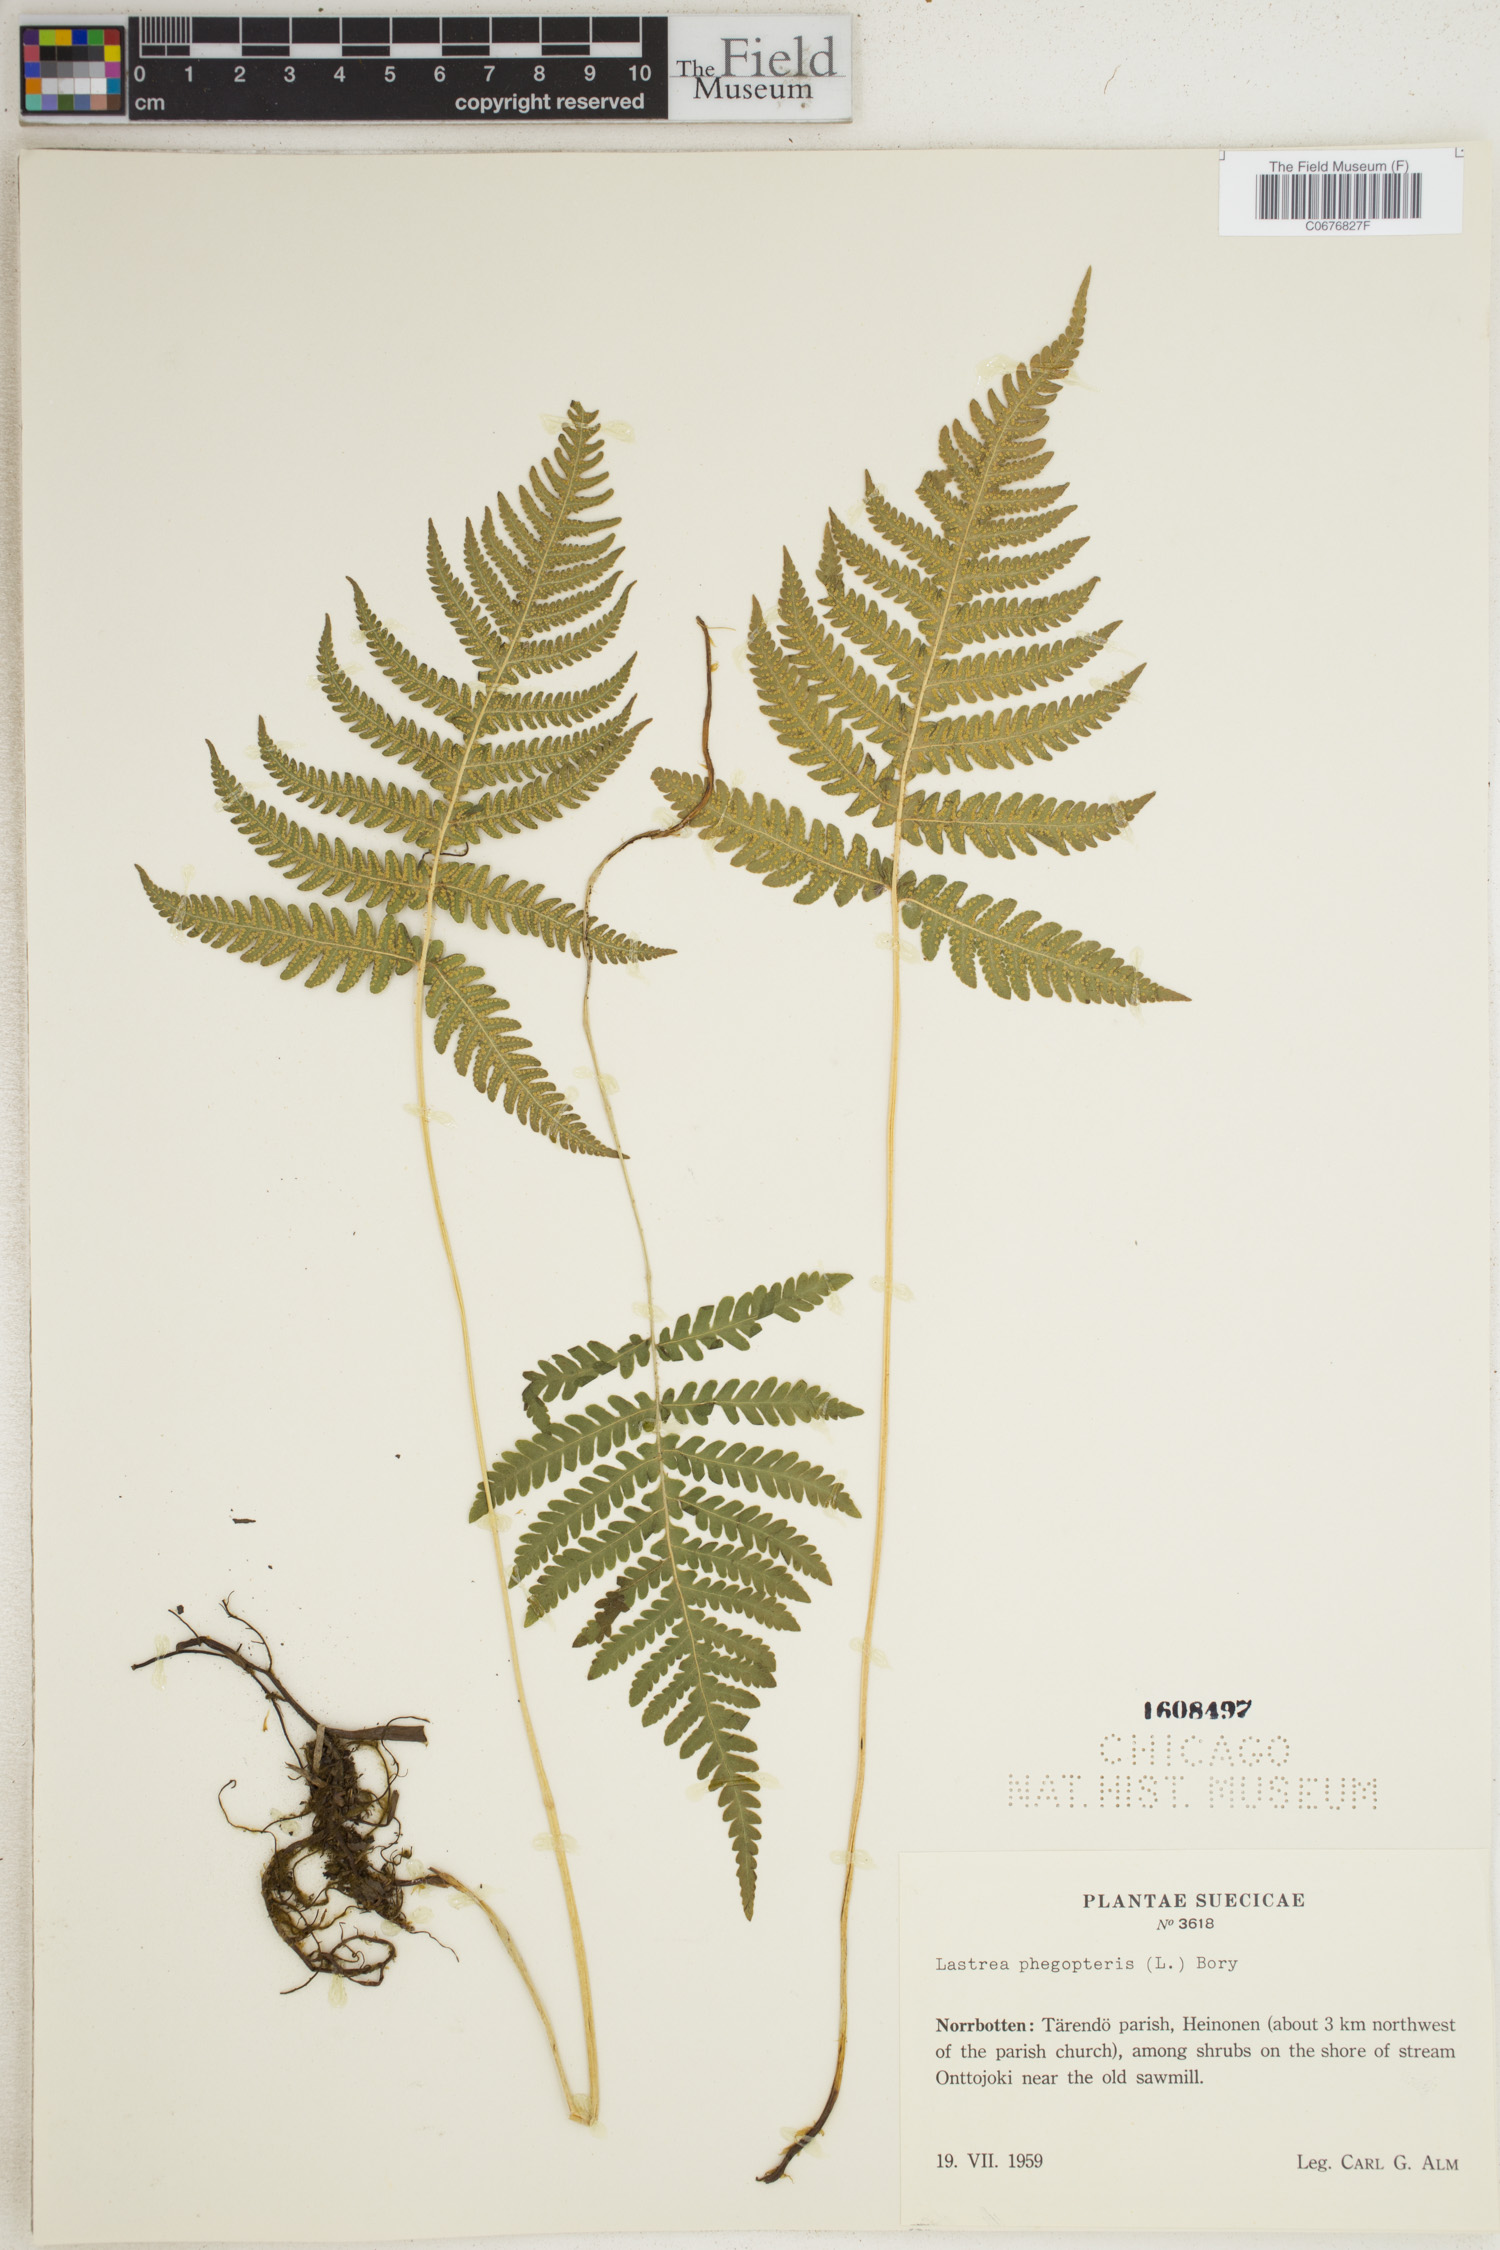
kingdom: Plantae
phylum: Tracheophyta
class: Polypodiopsida
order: Polypodiales
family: Thelypteridaceae
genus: Phegopteris
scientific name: Phegopteris connectilis
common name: Beech fern
